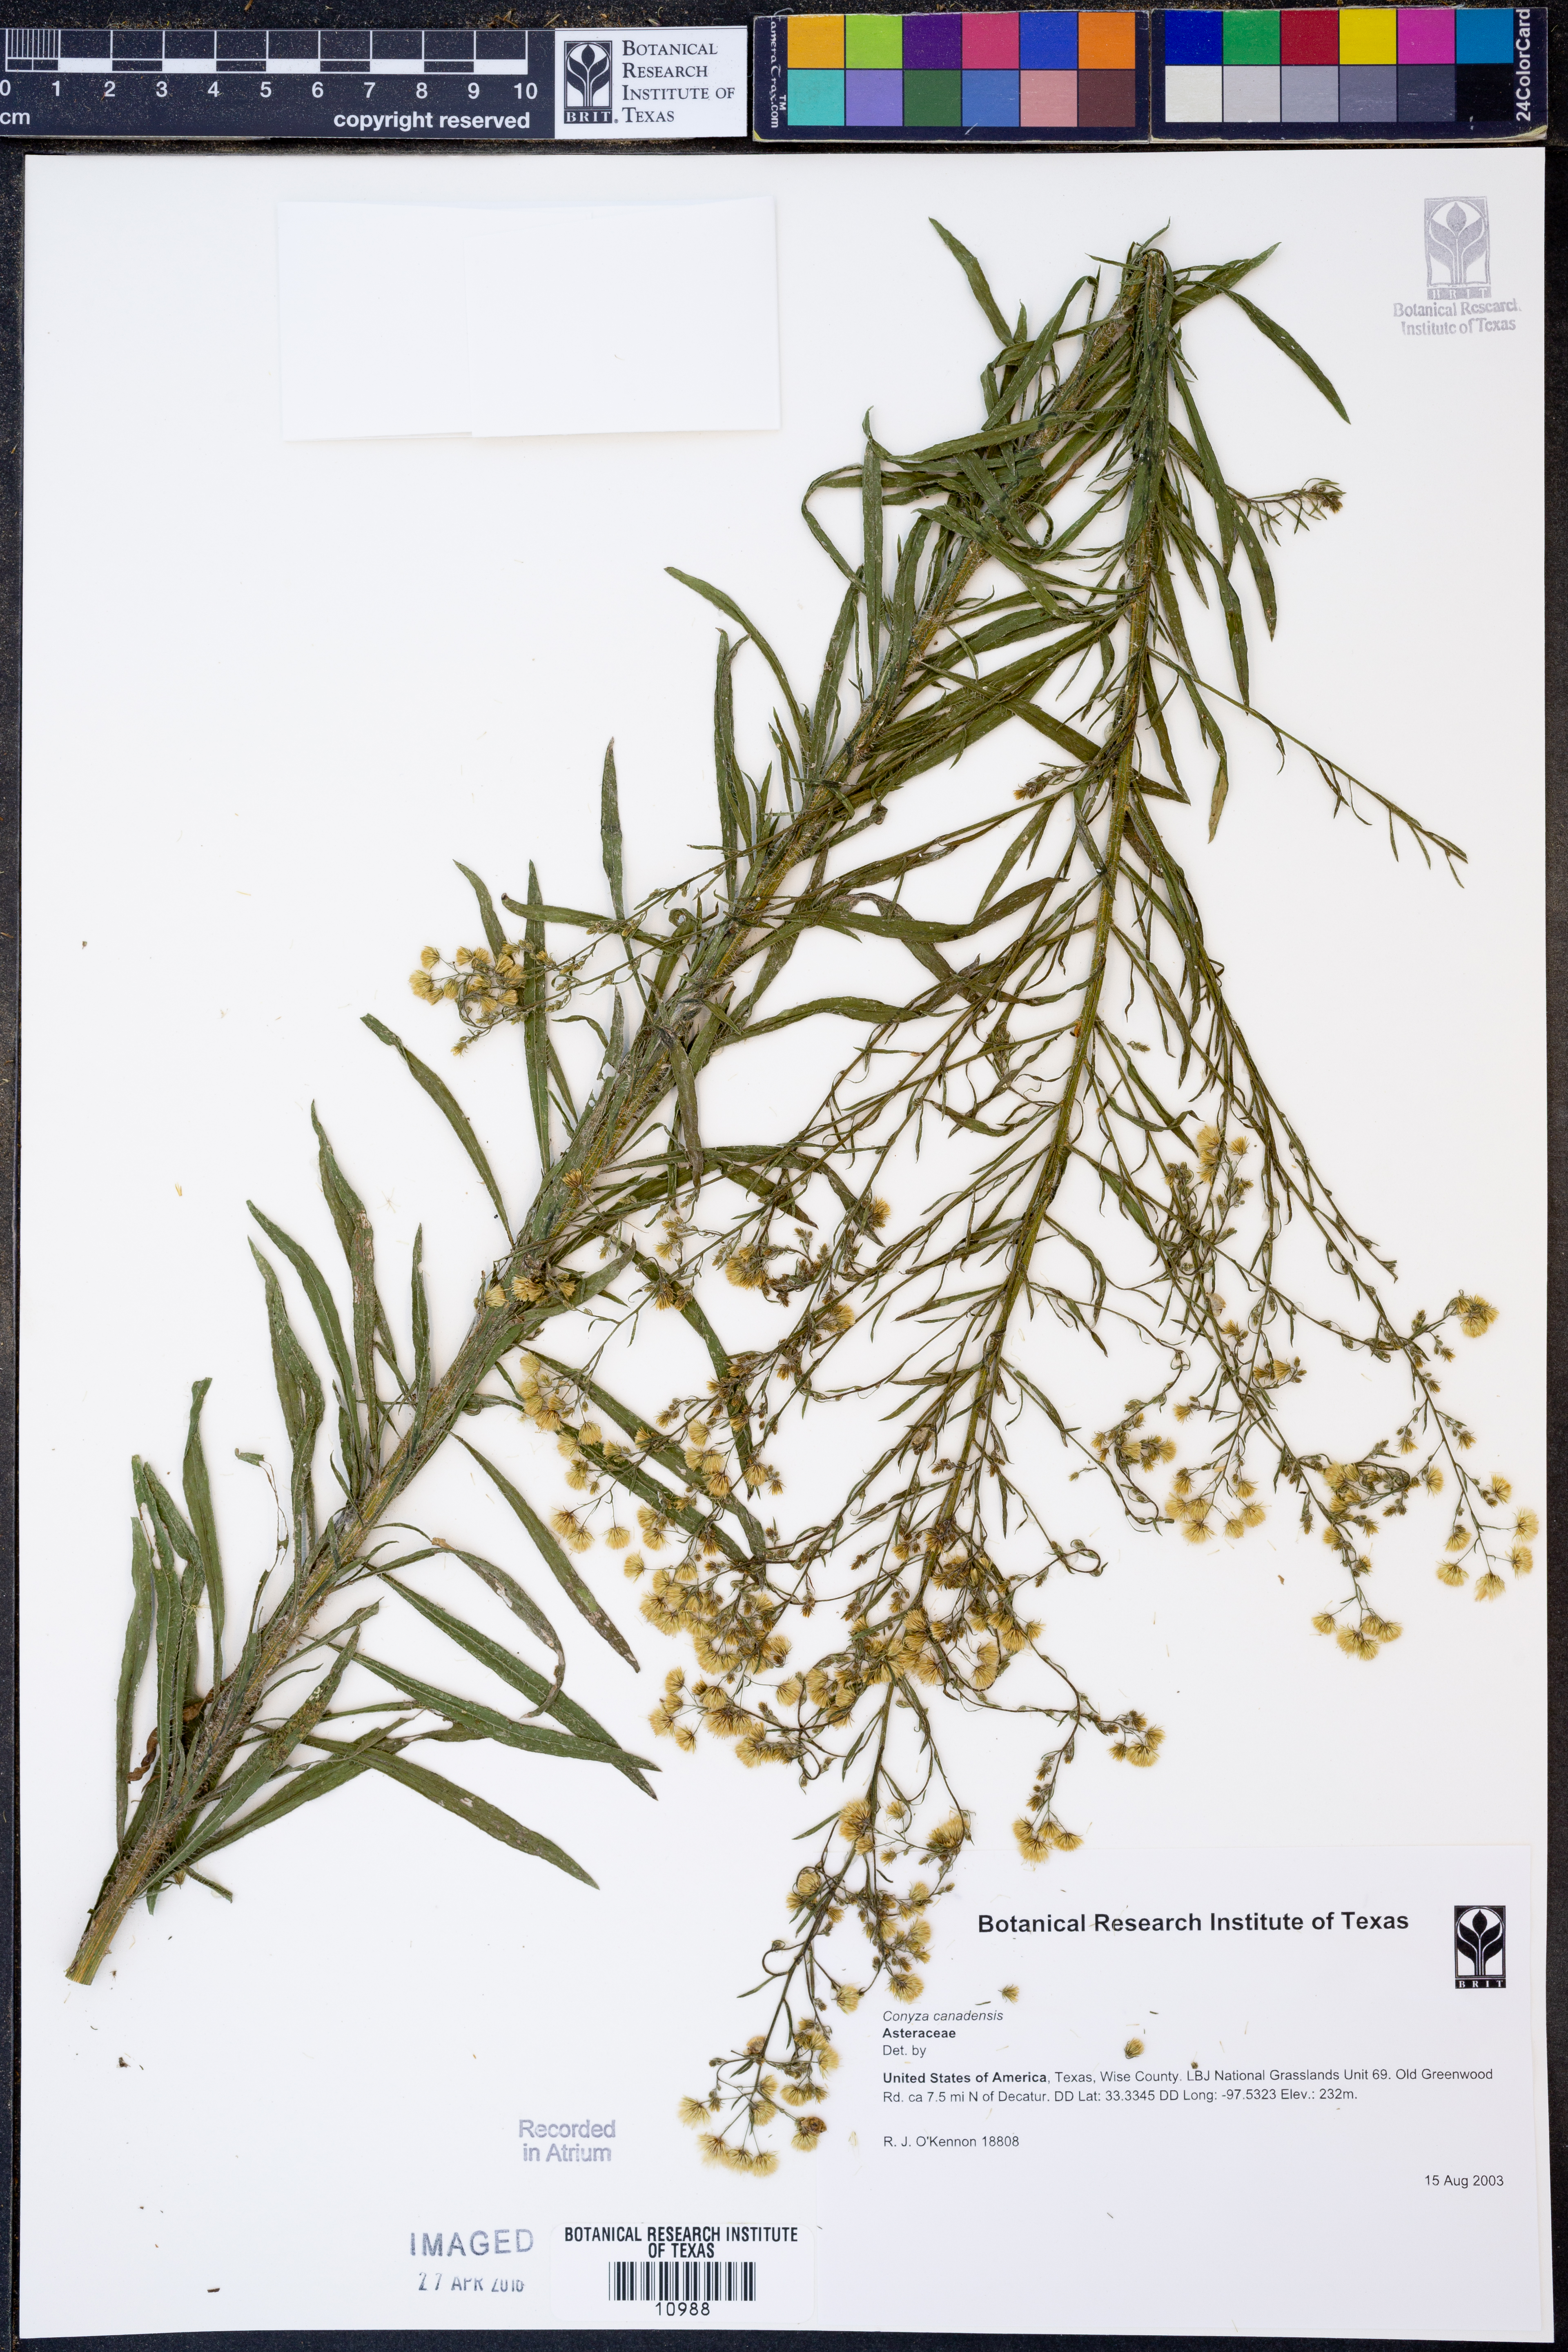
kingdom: Plantae
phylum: Tracheophyta
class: Magnoliopsida
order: Asterales
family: Asteraceae
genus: Erigeron
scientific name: Erigeron canadensis
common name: Canadian fleabane
